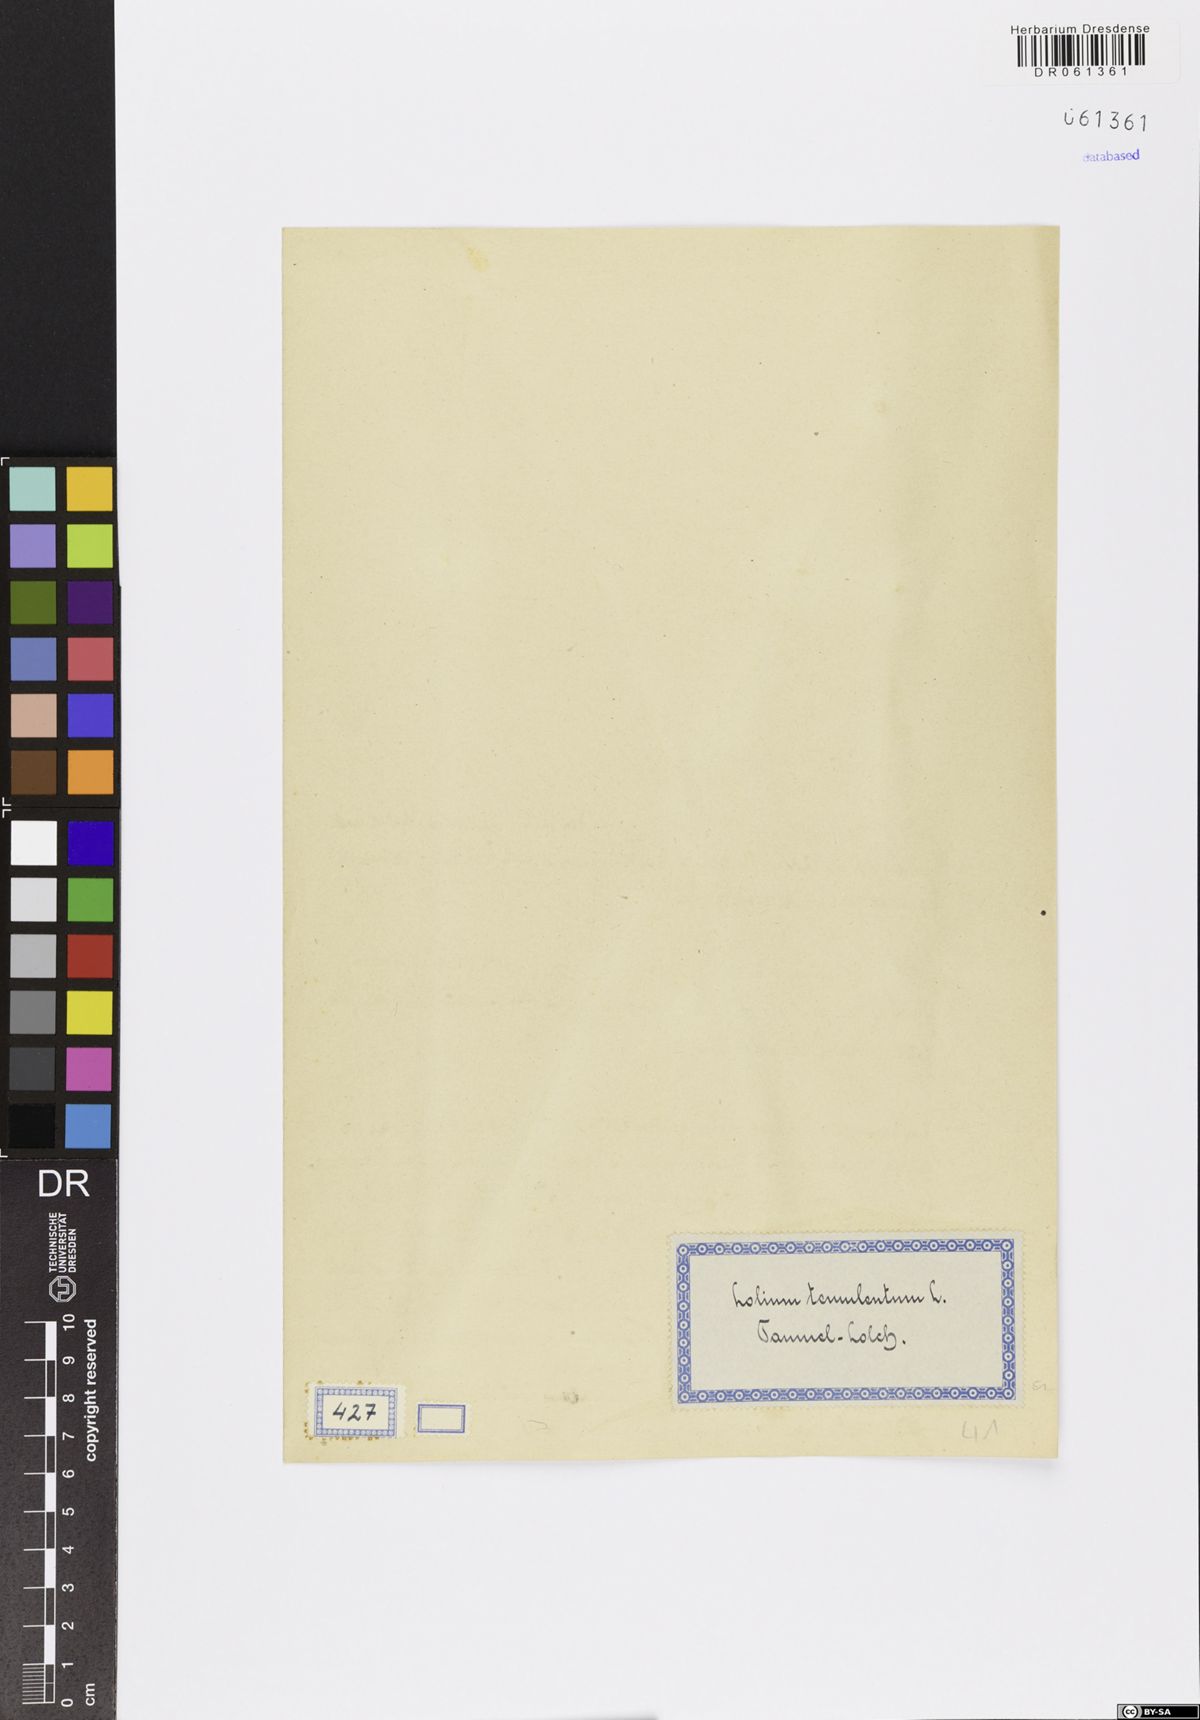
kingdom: Plantae
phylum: Tracheophyta
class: Liliopsida
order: Poales
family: Poaceae
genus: Lolium
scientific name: Lolium temulentum
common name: Darnel
